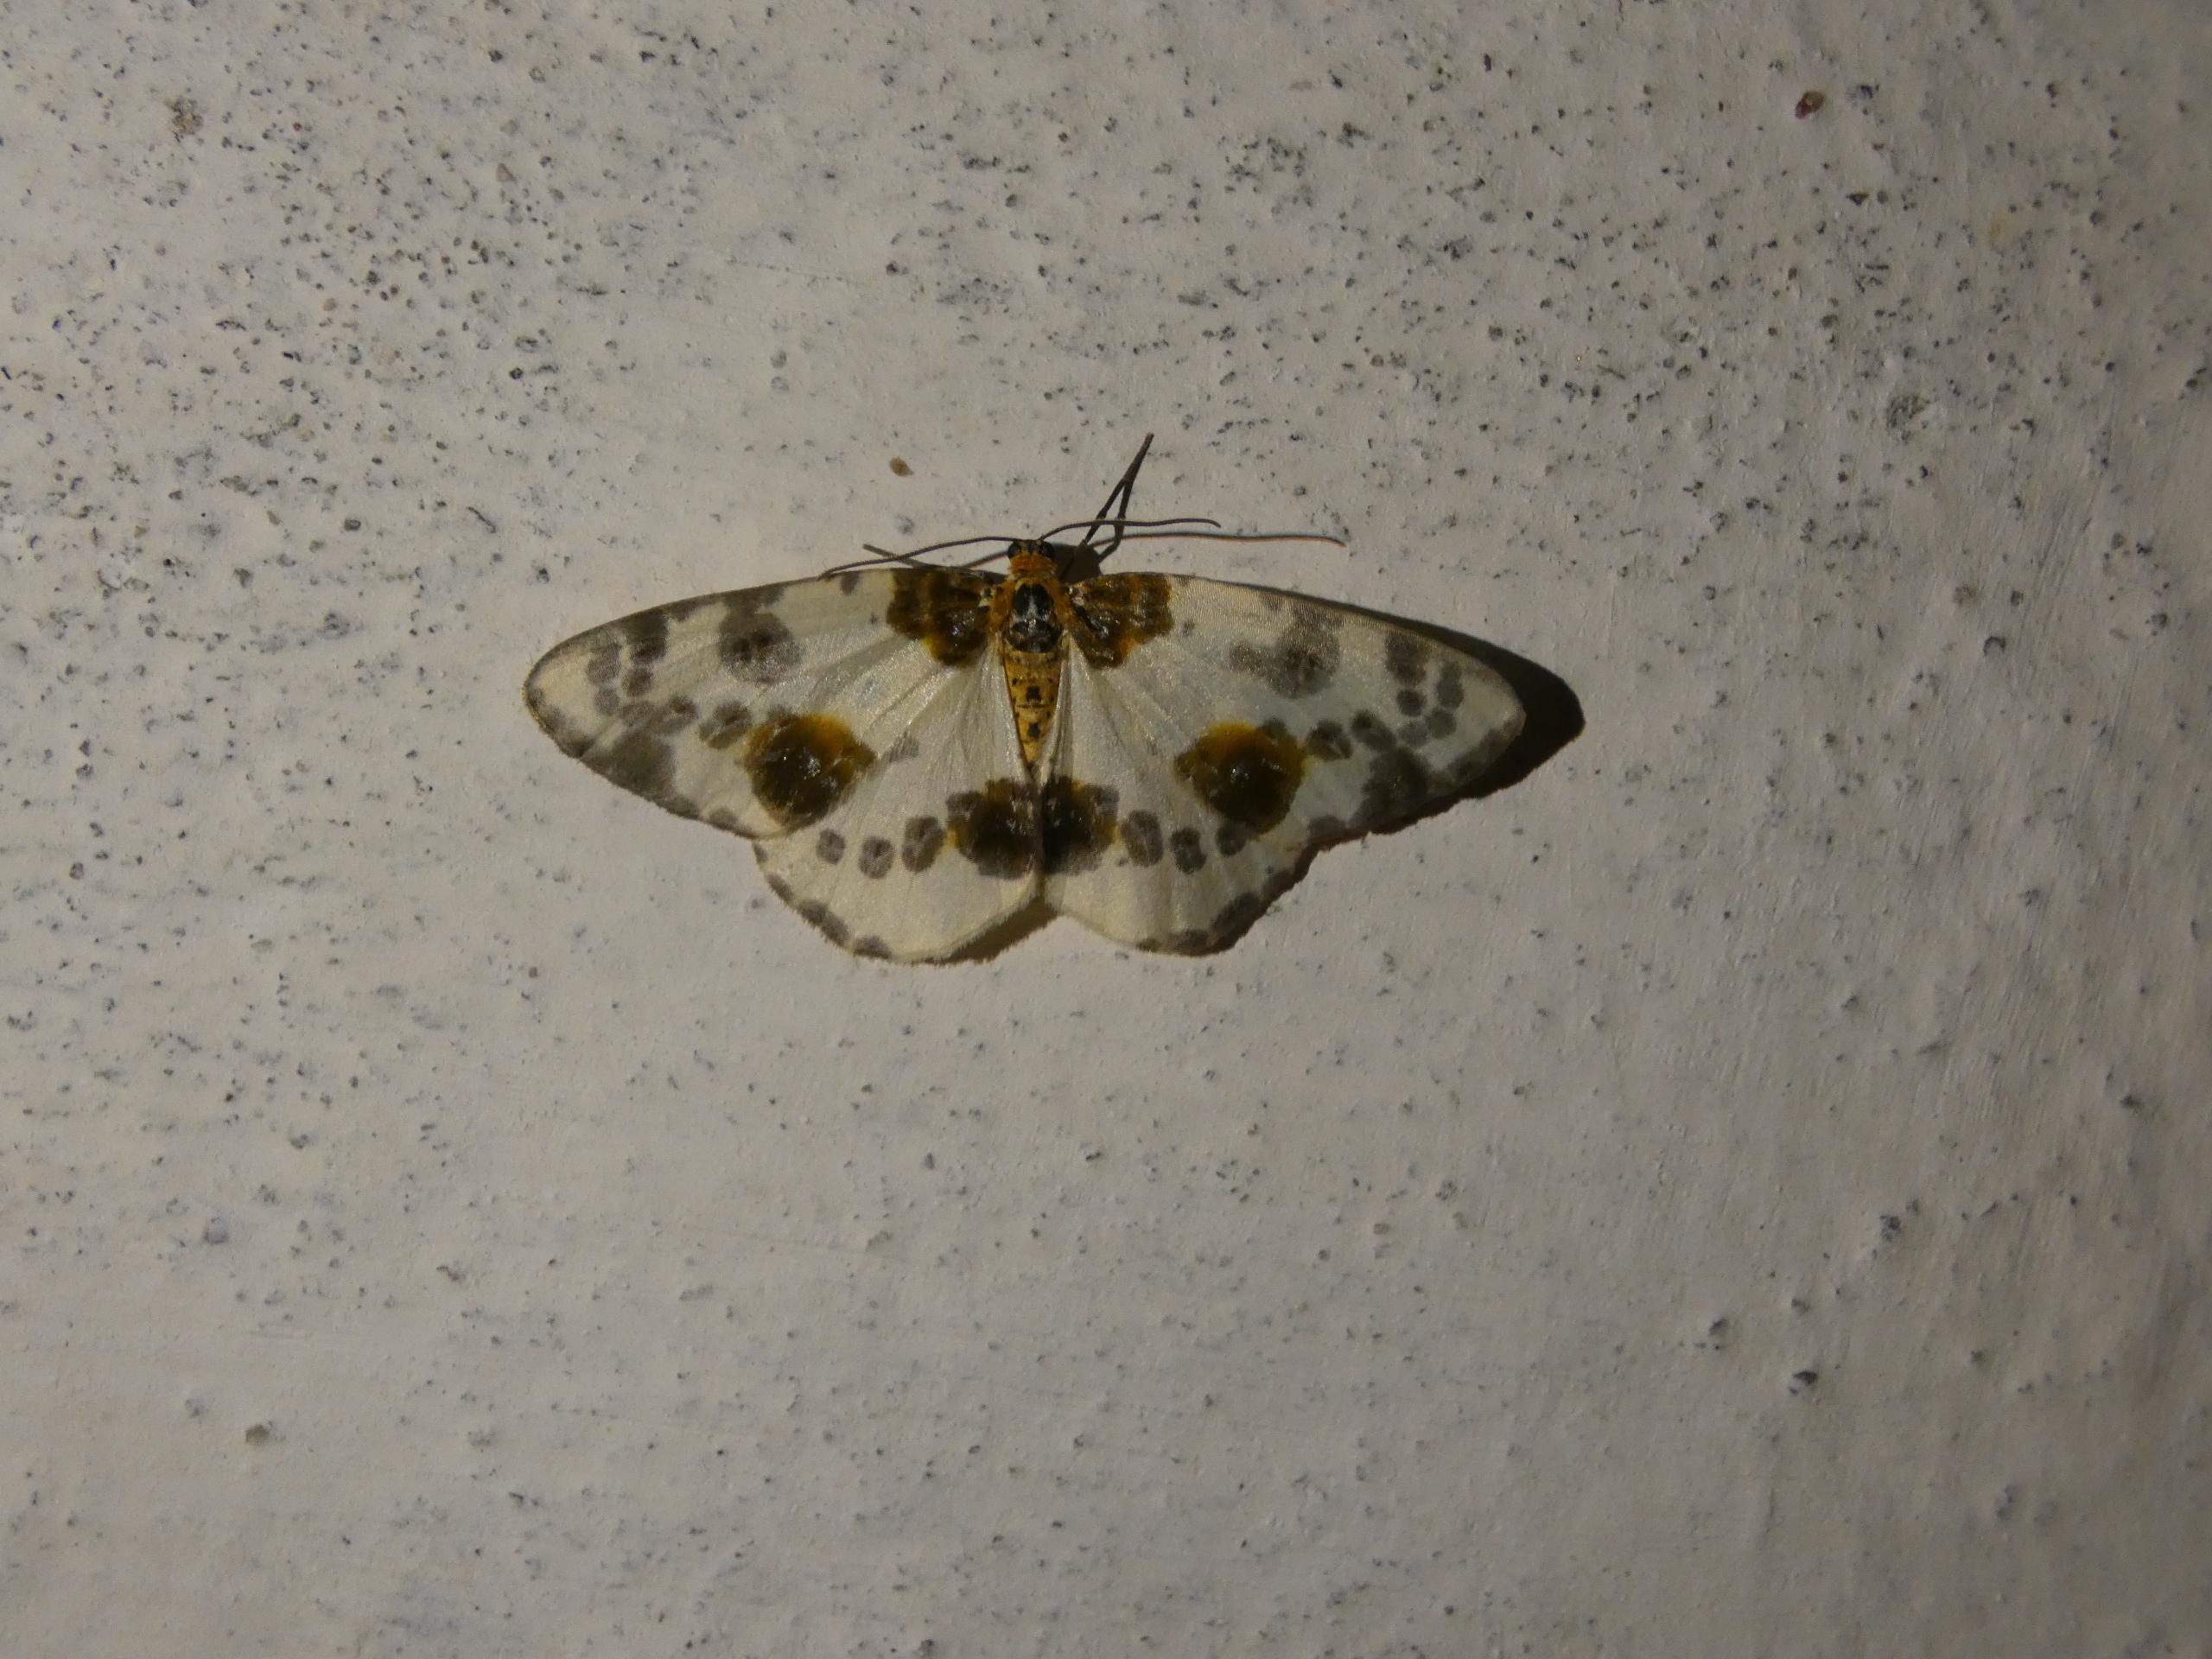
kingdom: Animalia
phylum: Arthropoda
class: Insecta
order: Lepidoptera
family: Geometridae
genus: Abraxas
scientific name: Abraxas sylvata
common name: Elmemåler
